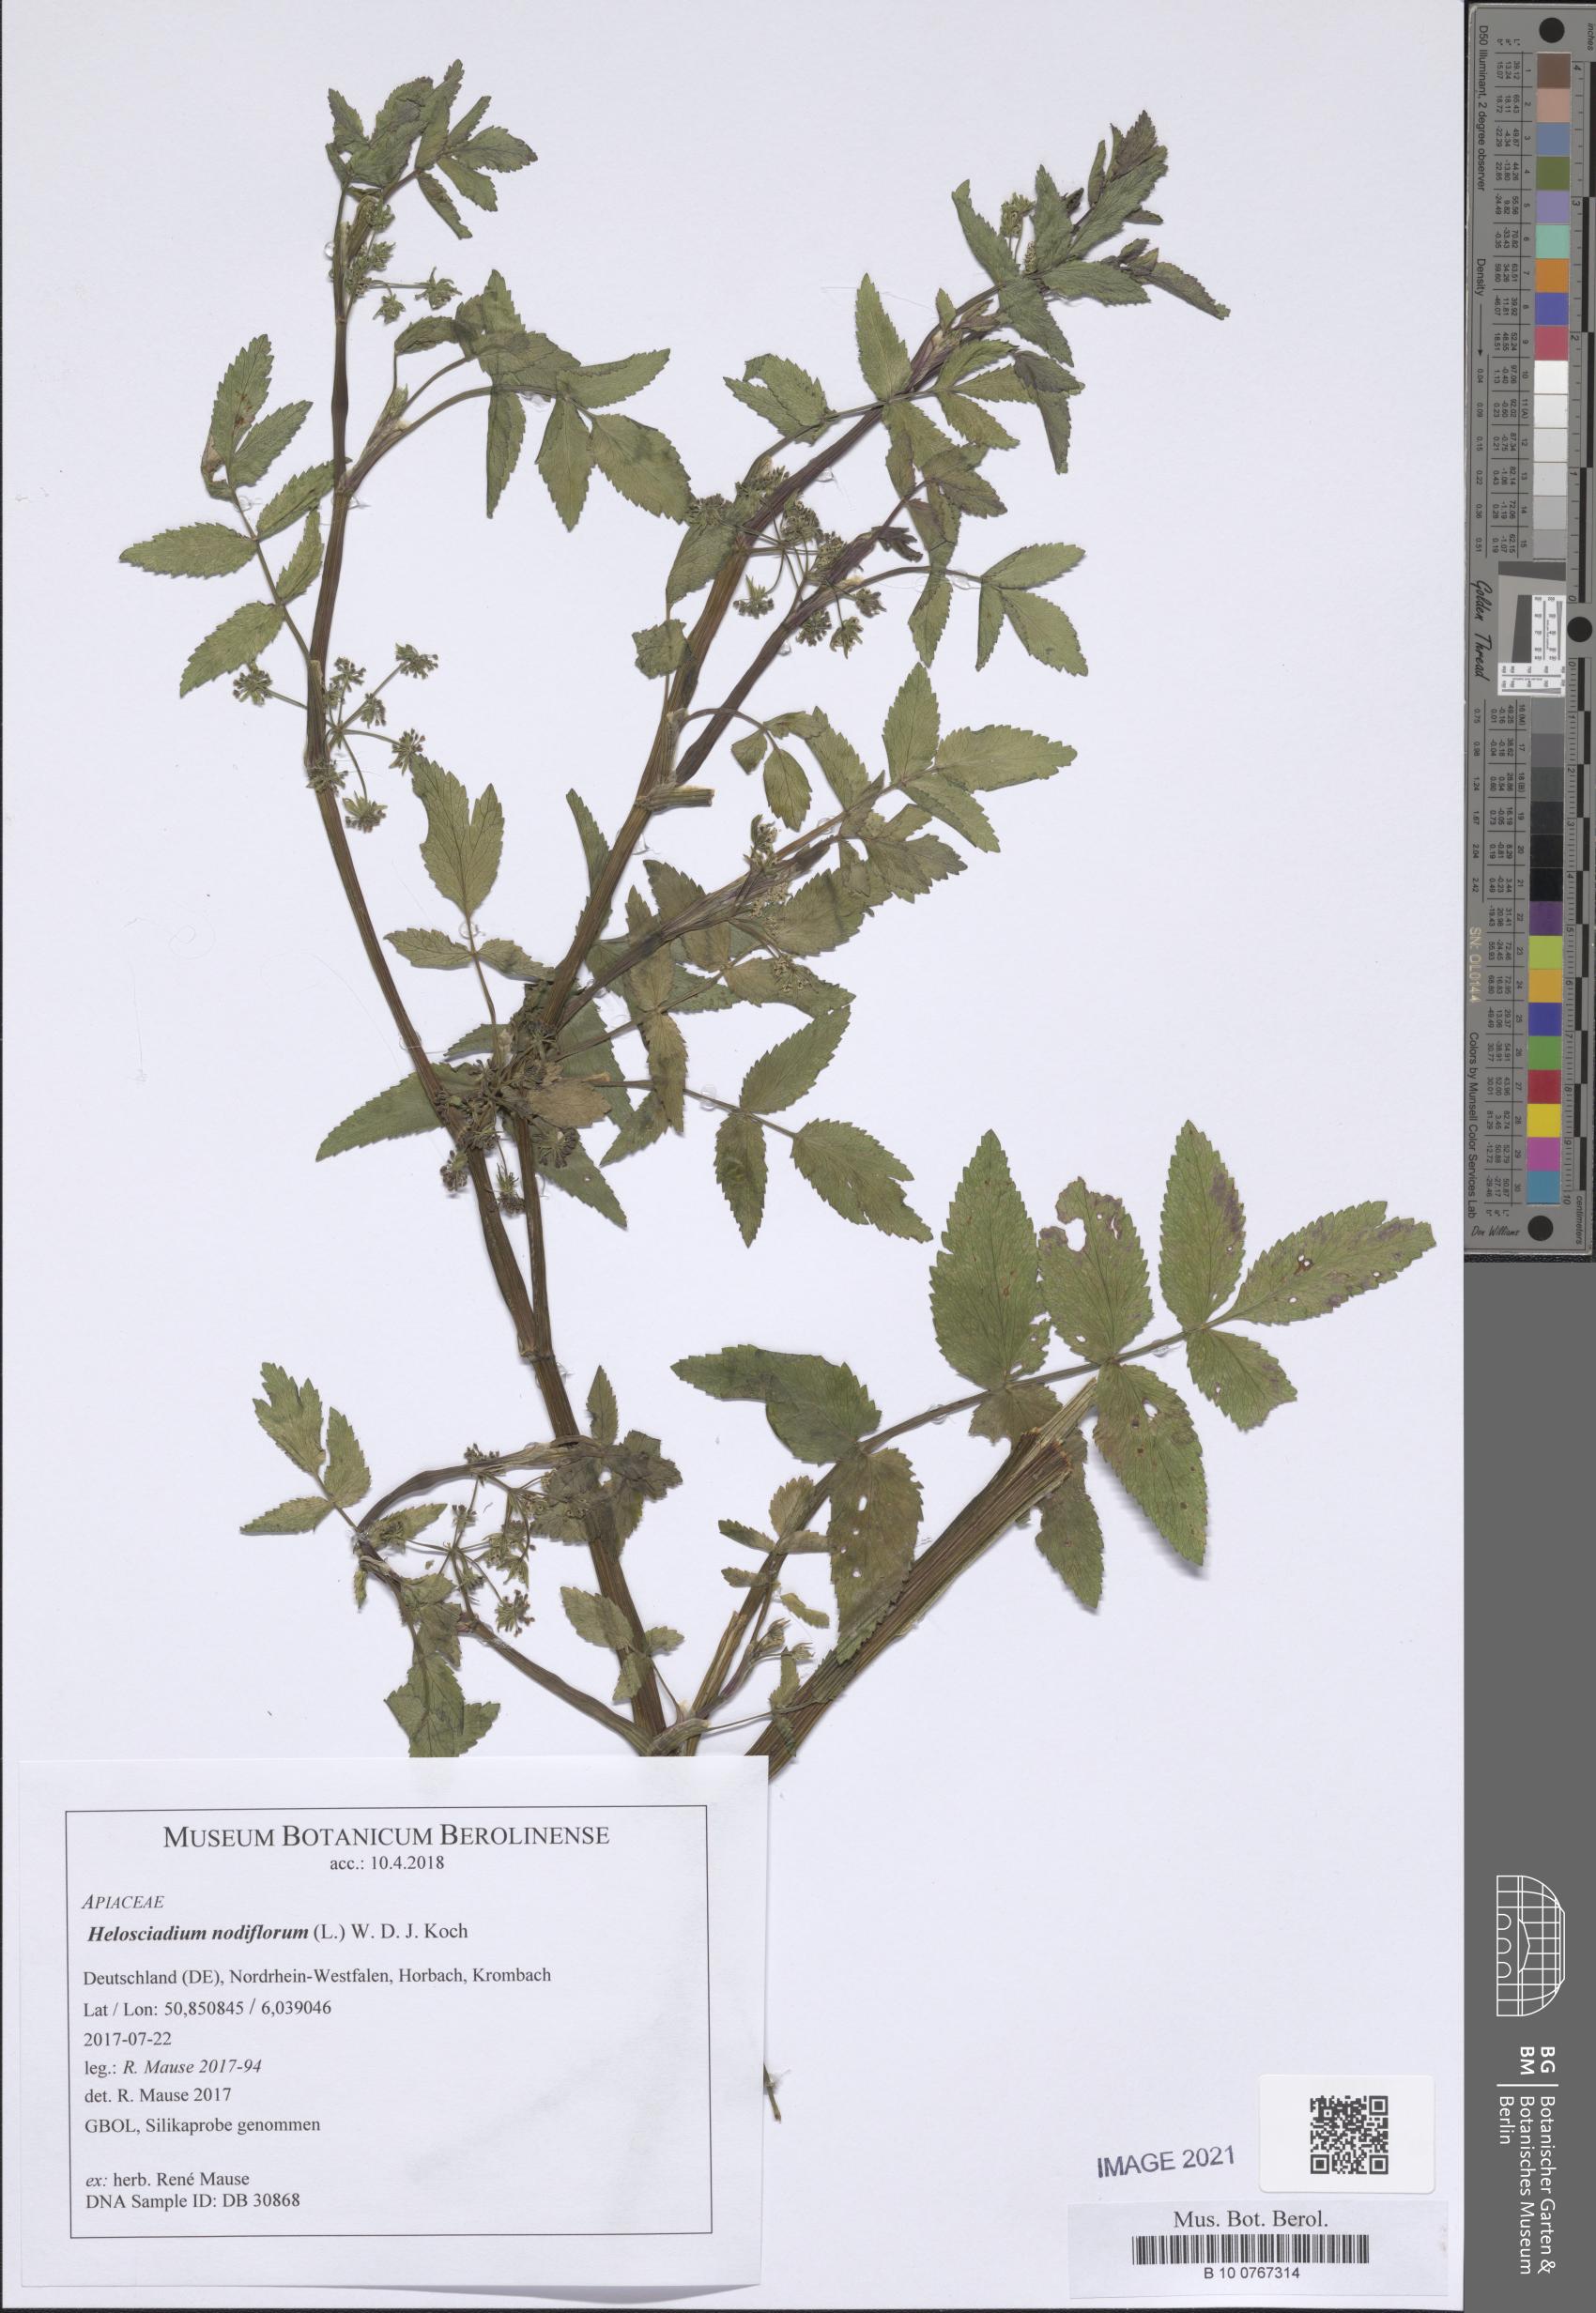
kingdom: Plantae
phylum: Tracheophyta
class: Magnoliopsida
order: Apiales
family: Apiaceae
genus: Helosciadium
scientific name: Helosciadium nodiflorum
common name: Fool's-watercress
